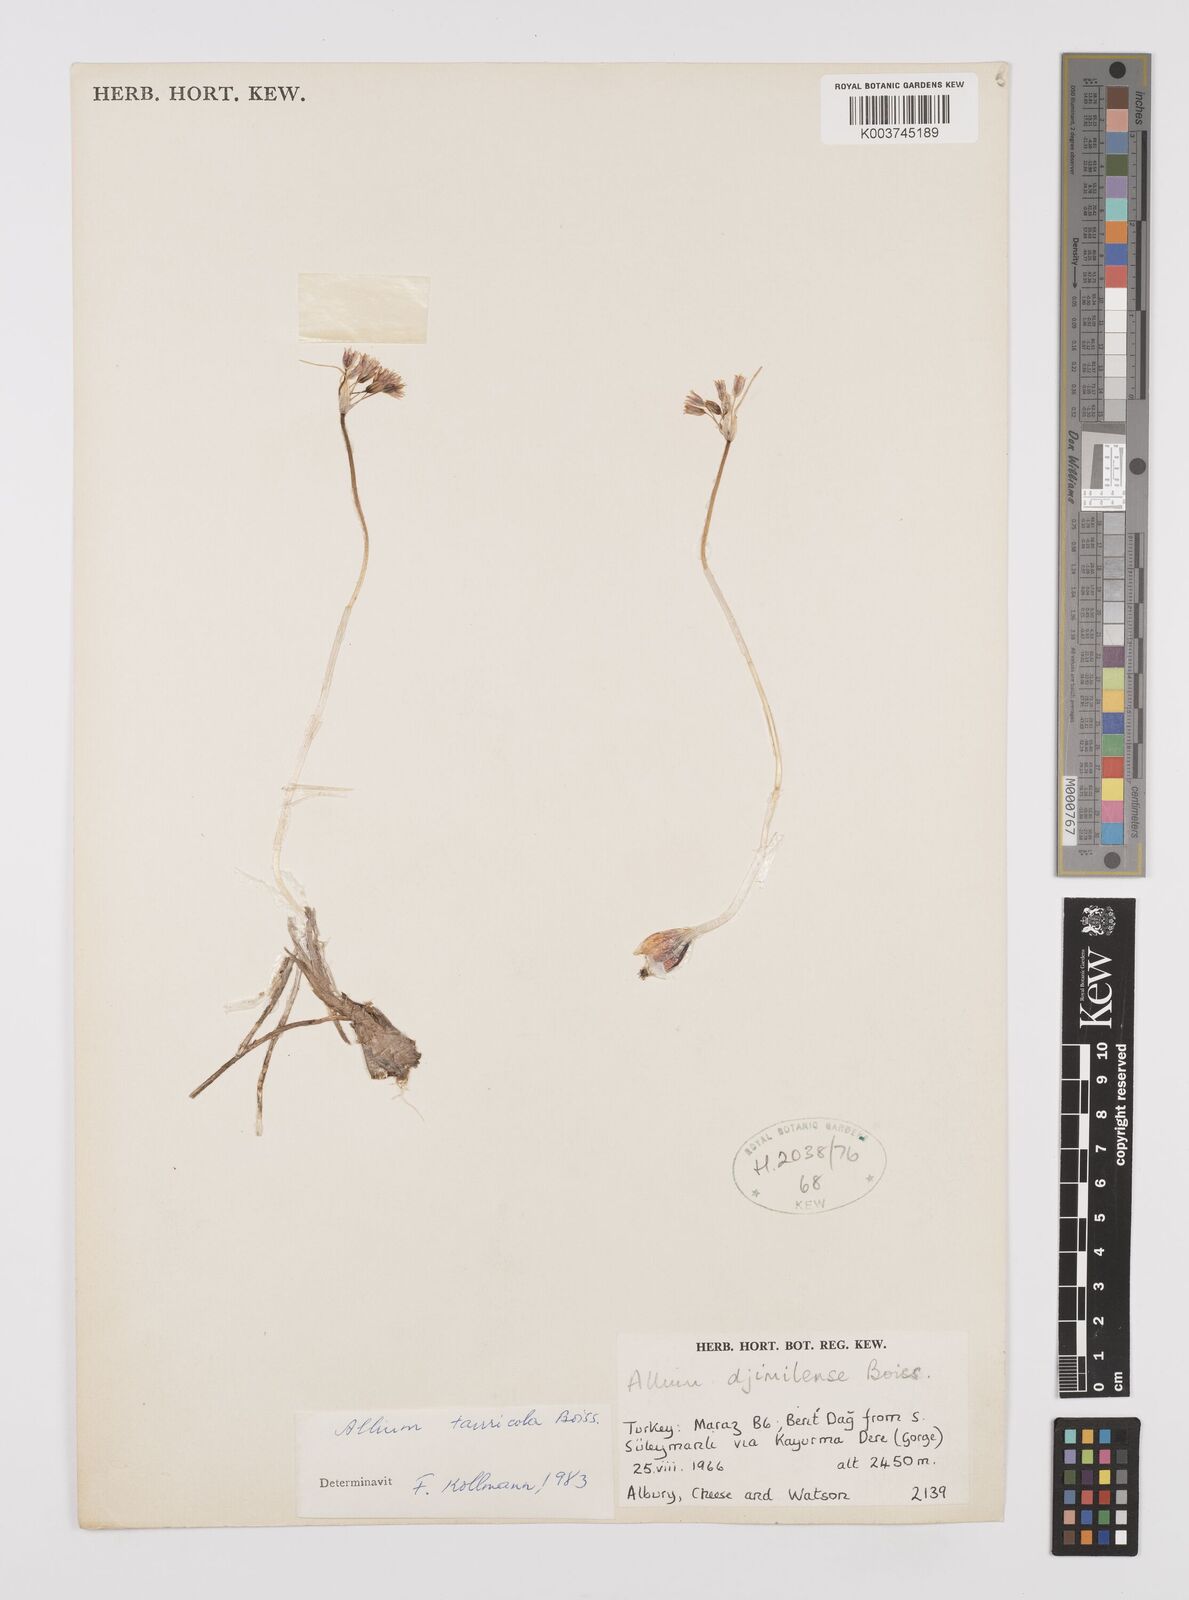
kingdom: Plantae
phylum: Tracheophyta
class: Liliopsida
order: Asparagales
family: Amaryllidaceae
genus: Allium
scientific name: Allium tauricola
